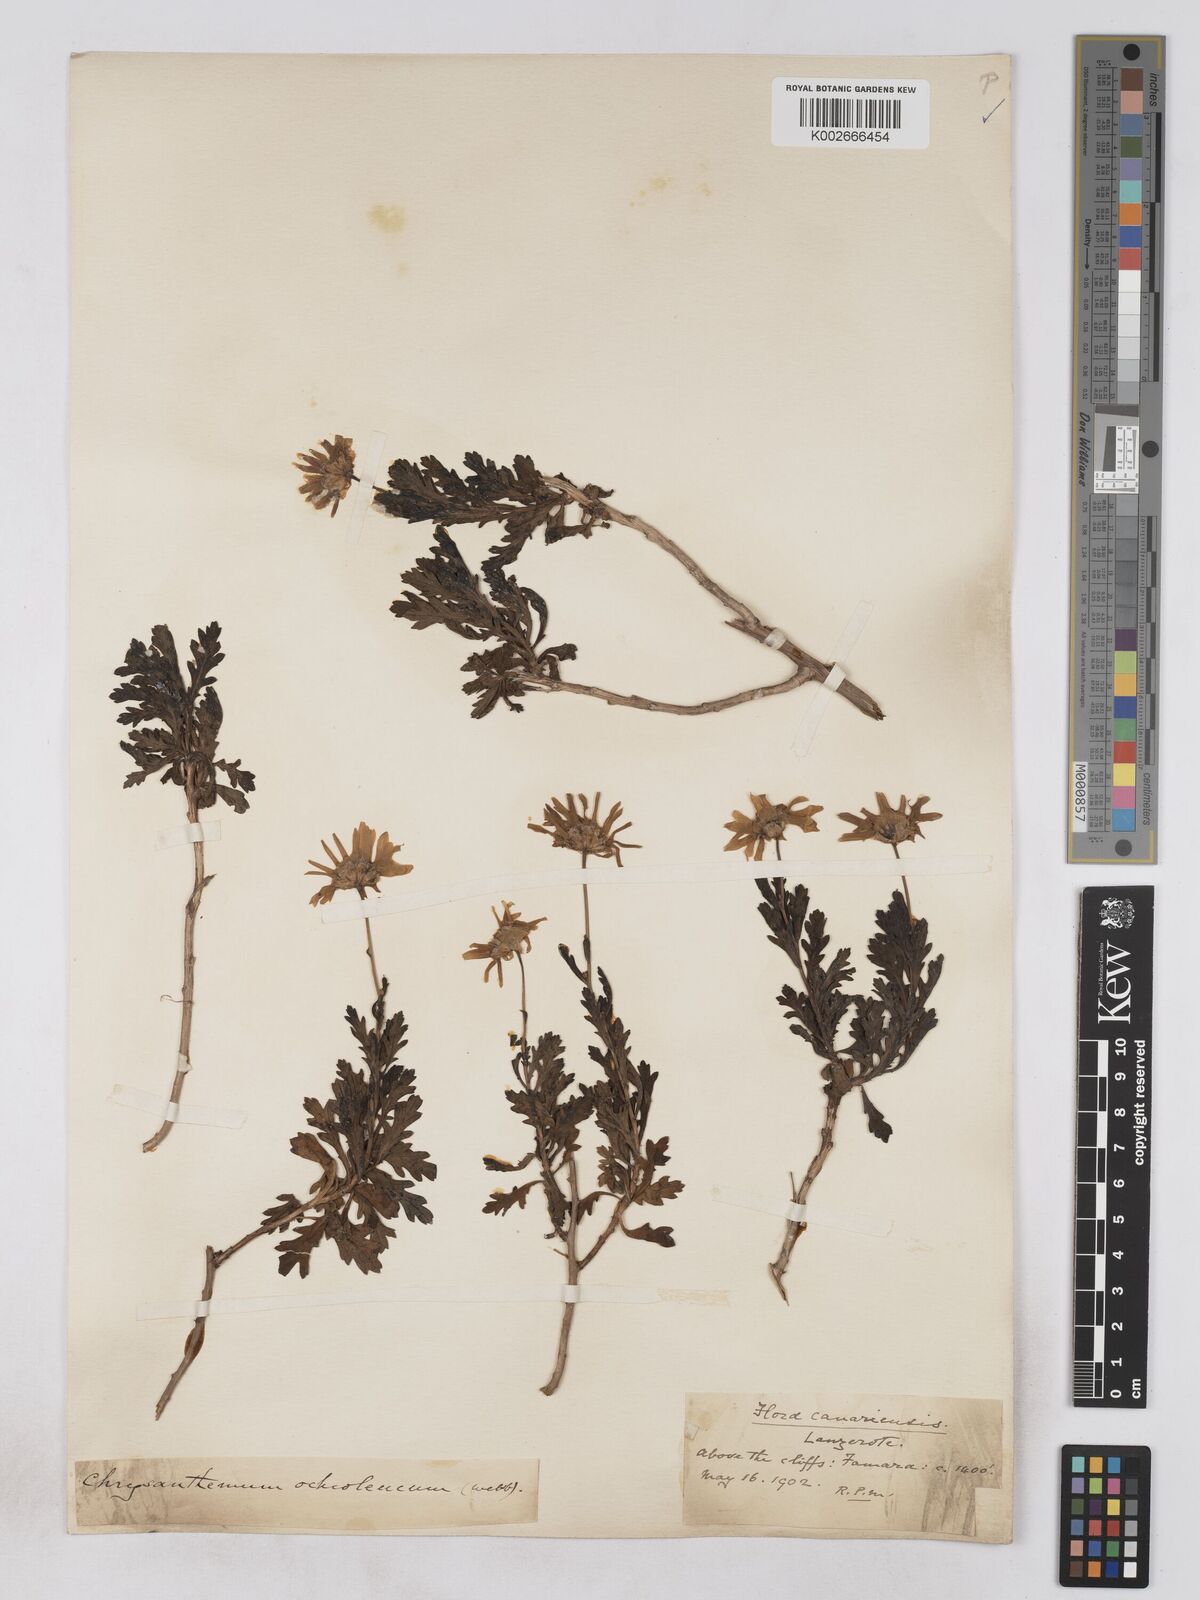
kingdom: Plantae
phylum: Tracheophyta
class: Magnoliopsida
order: Asterales
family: Asteraceae
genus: Argyranthemum
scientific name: Argyranthemum maderense
